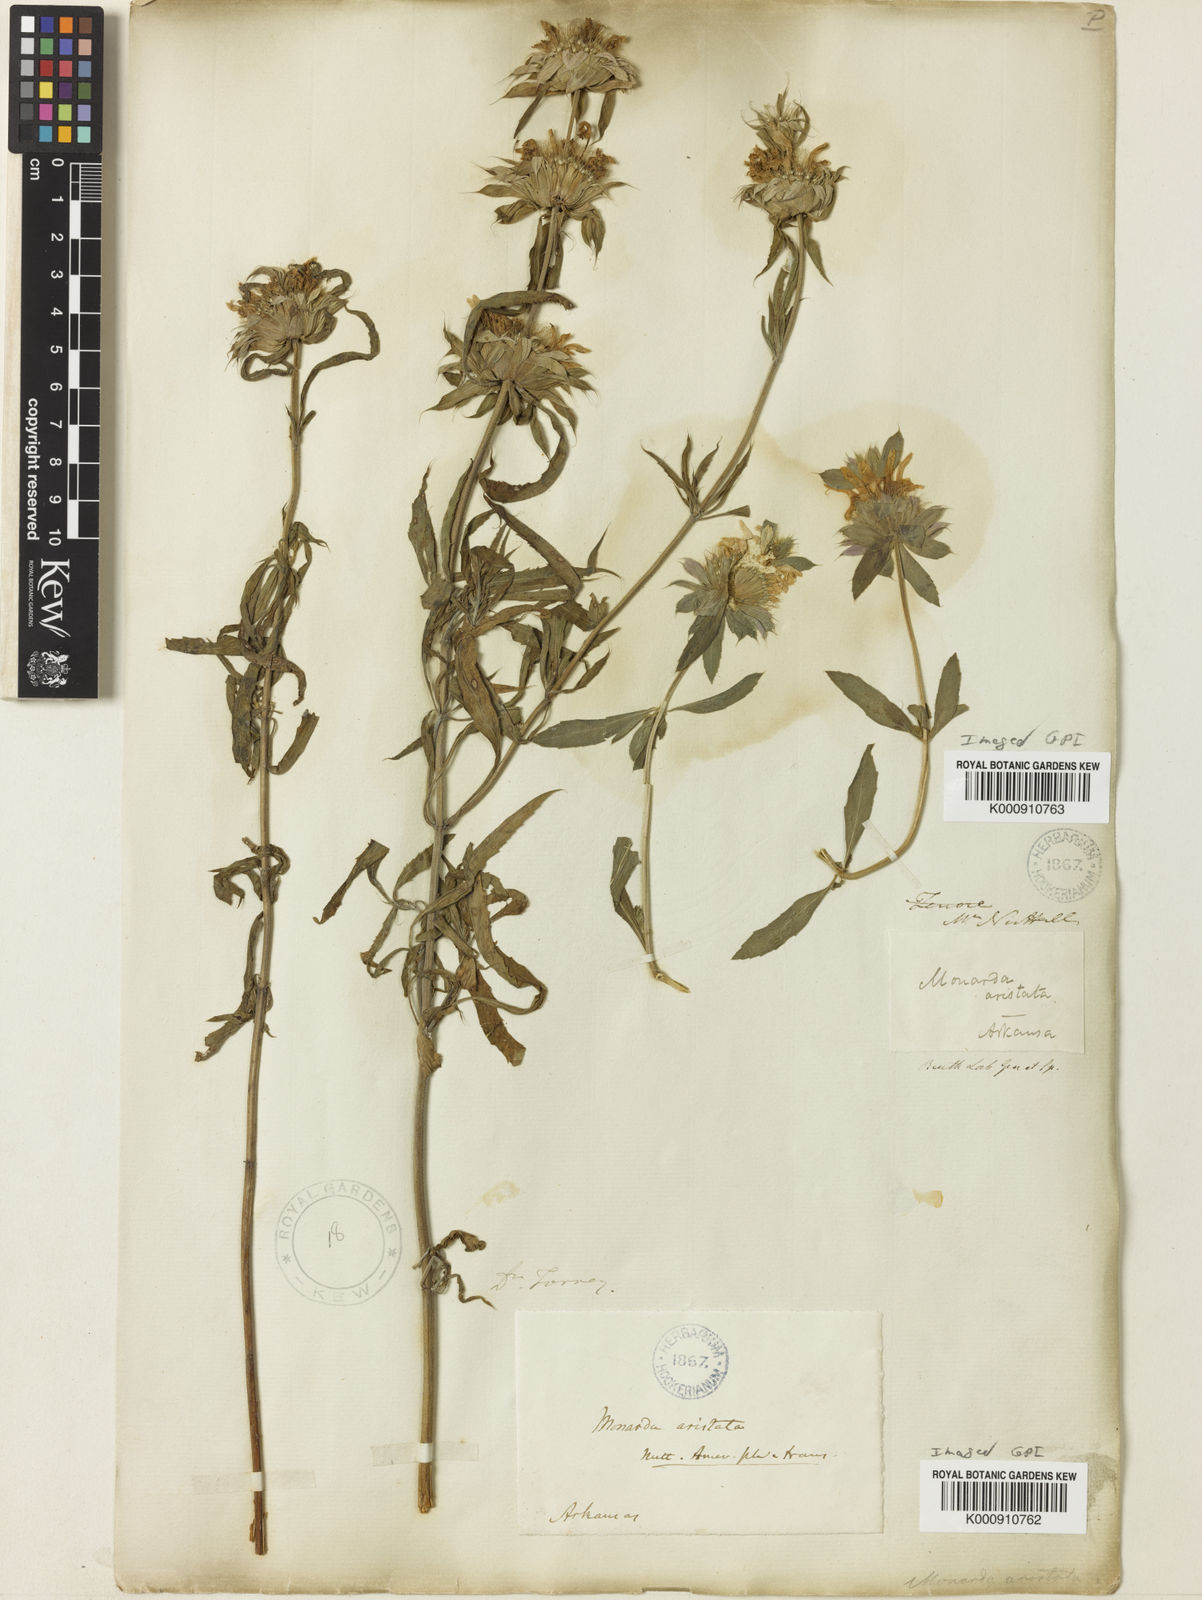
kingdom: Plantae
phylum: Tracheophyta
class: Magnoliopsida
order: Lamiales
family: Lamiaceae
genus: Monarda
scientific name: Monarda citriodora
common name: Lemon beebalm
